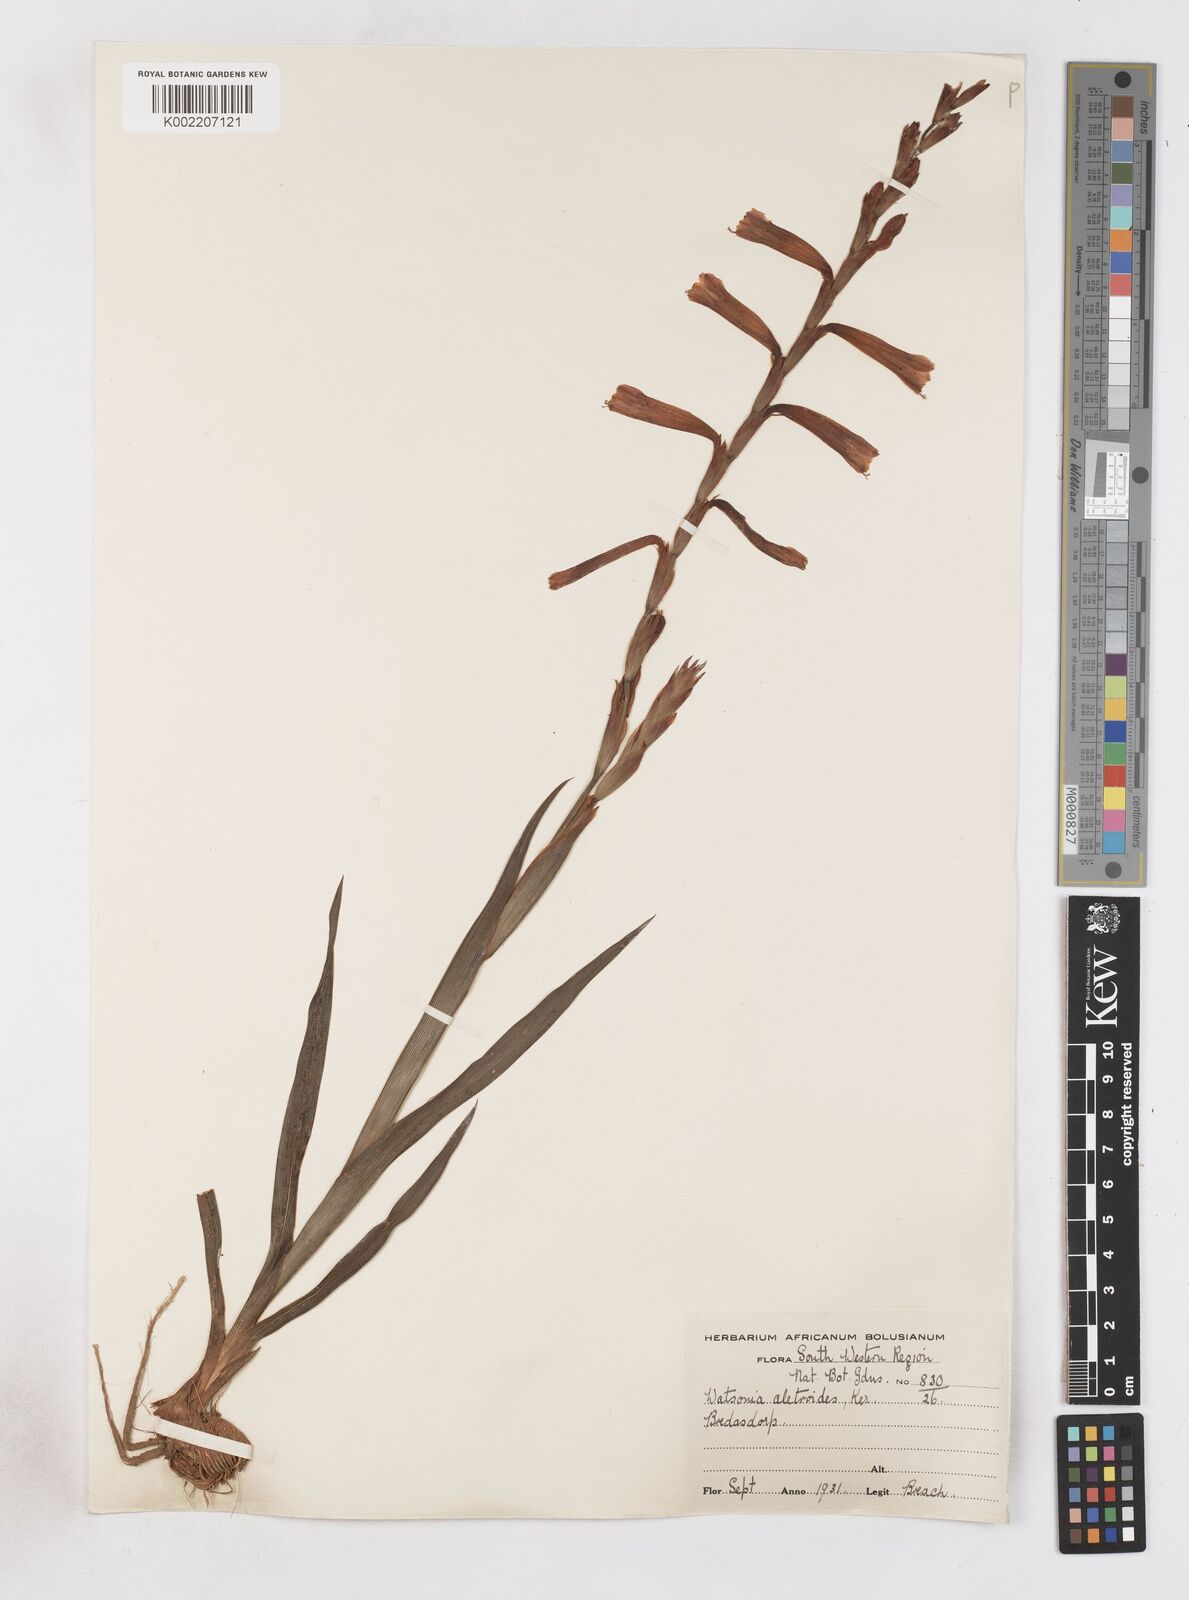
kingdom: Plantae
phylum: Tracheophyta
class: Liliopsida
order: Asparagales
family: Iridaceae
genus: Watsonia
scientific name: Watsonia aletroides
